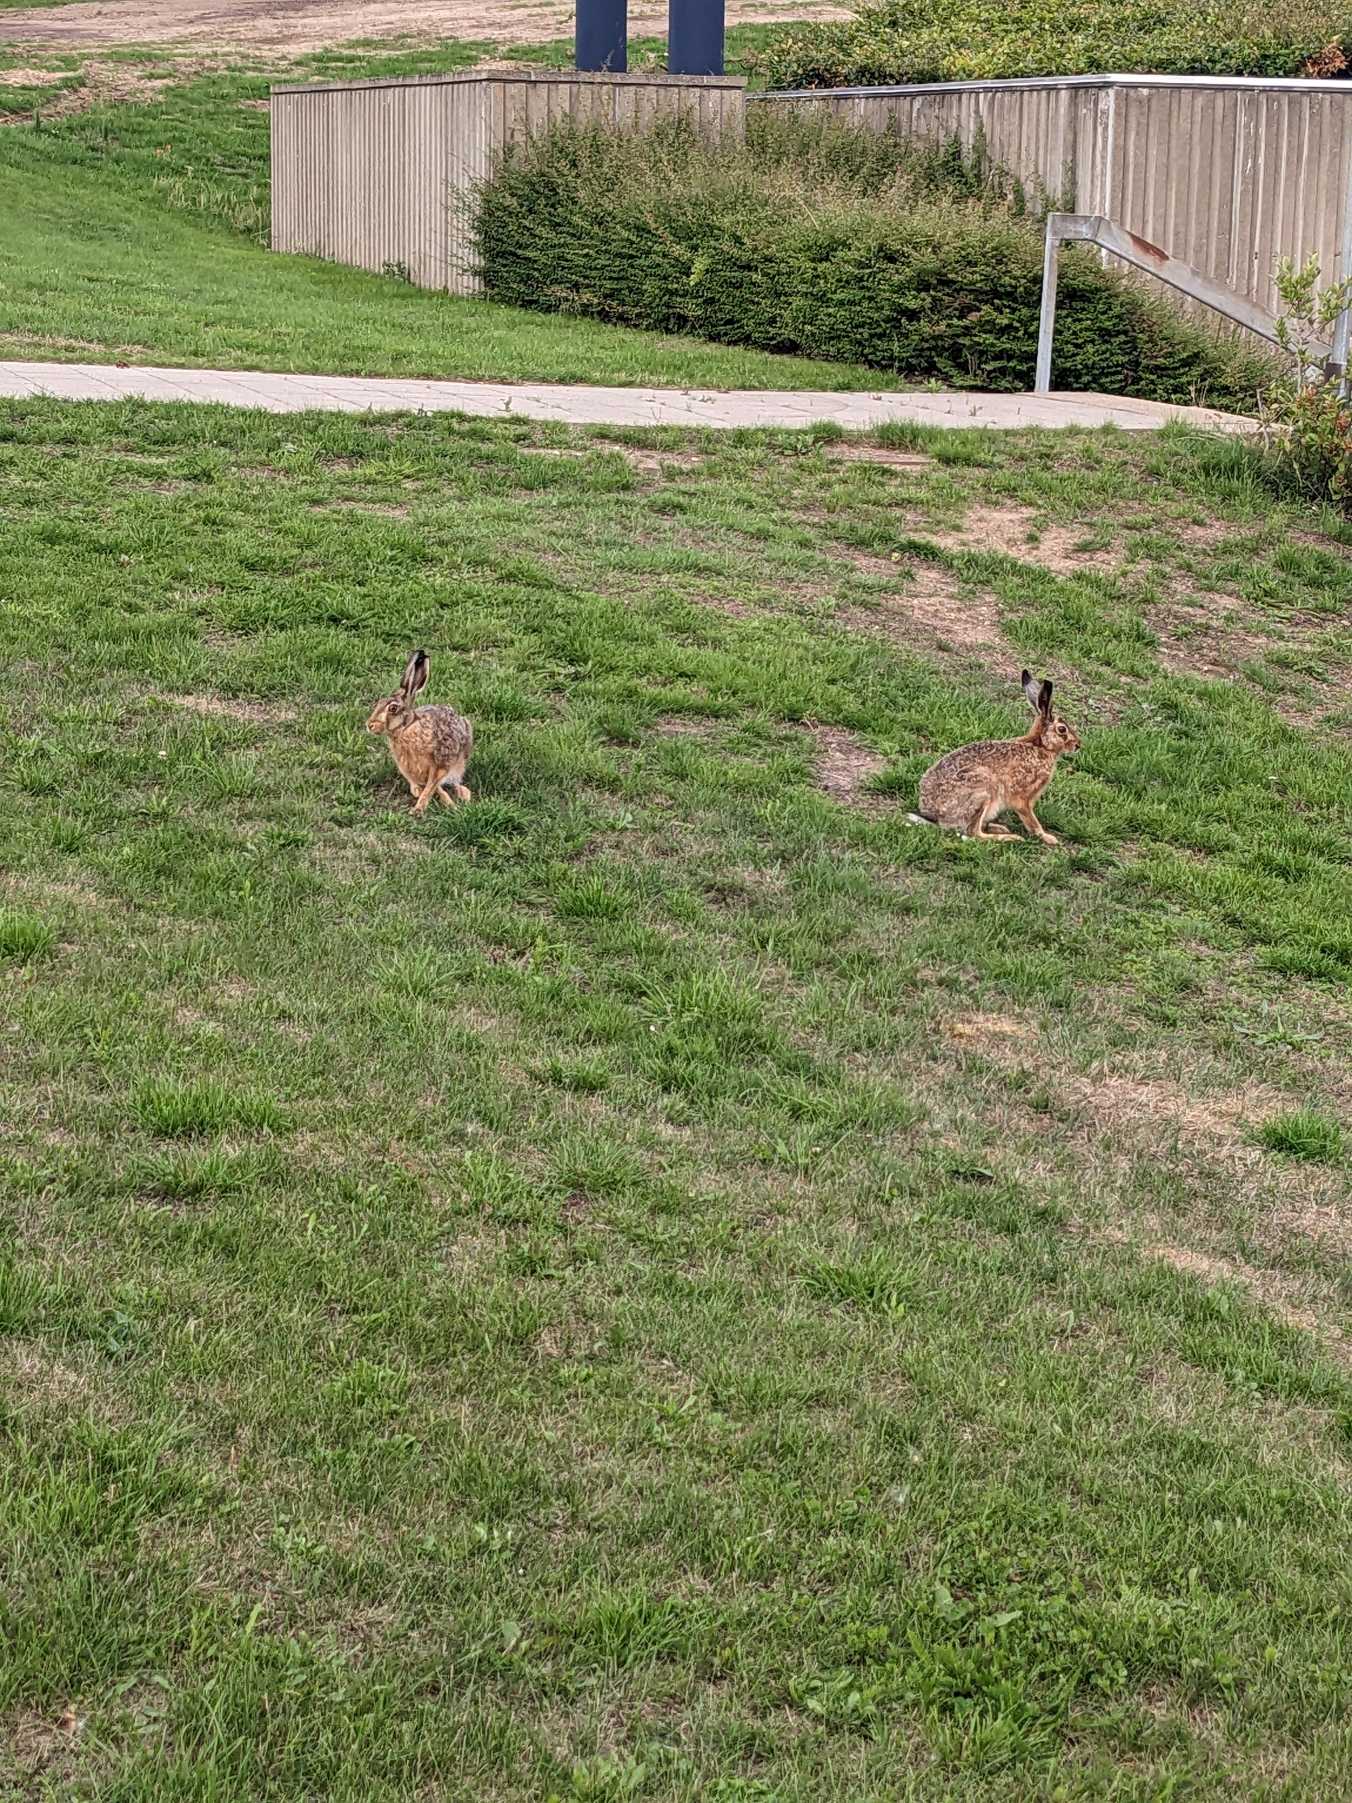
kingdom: Animalia
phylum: Chordata
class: Mammalia
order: Lagomorpha
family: Leporidae
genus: Lepus
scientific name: Lepus europaeus
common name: Hare
